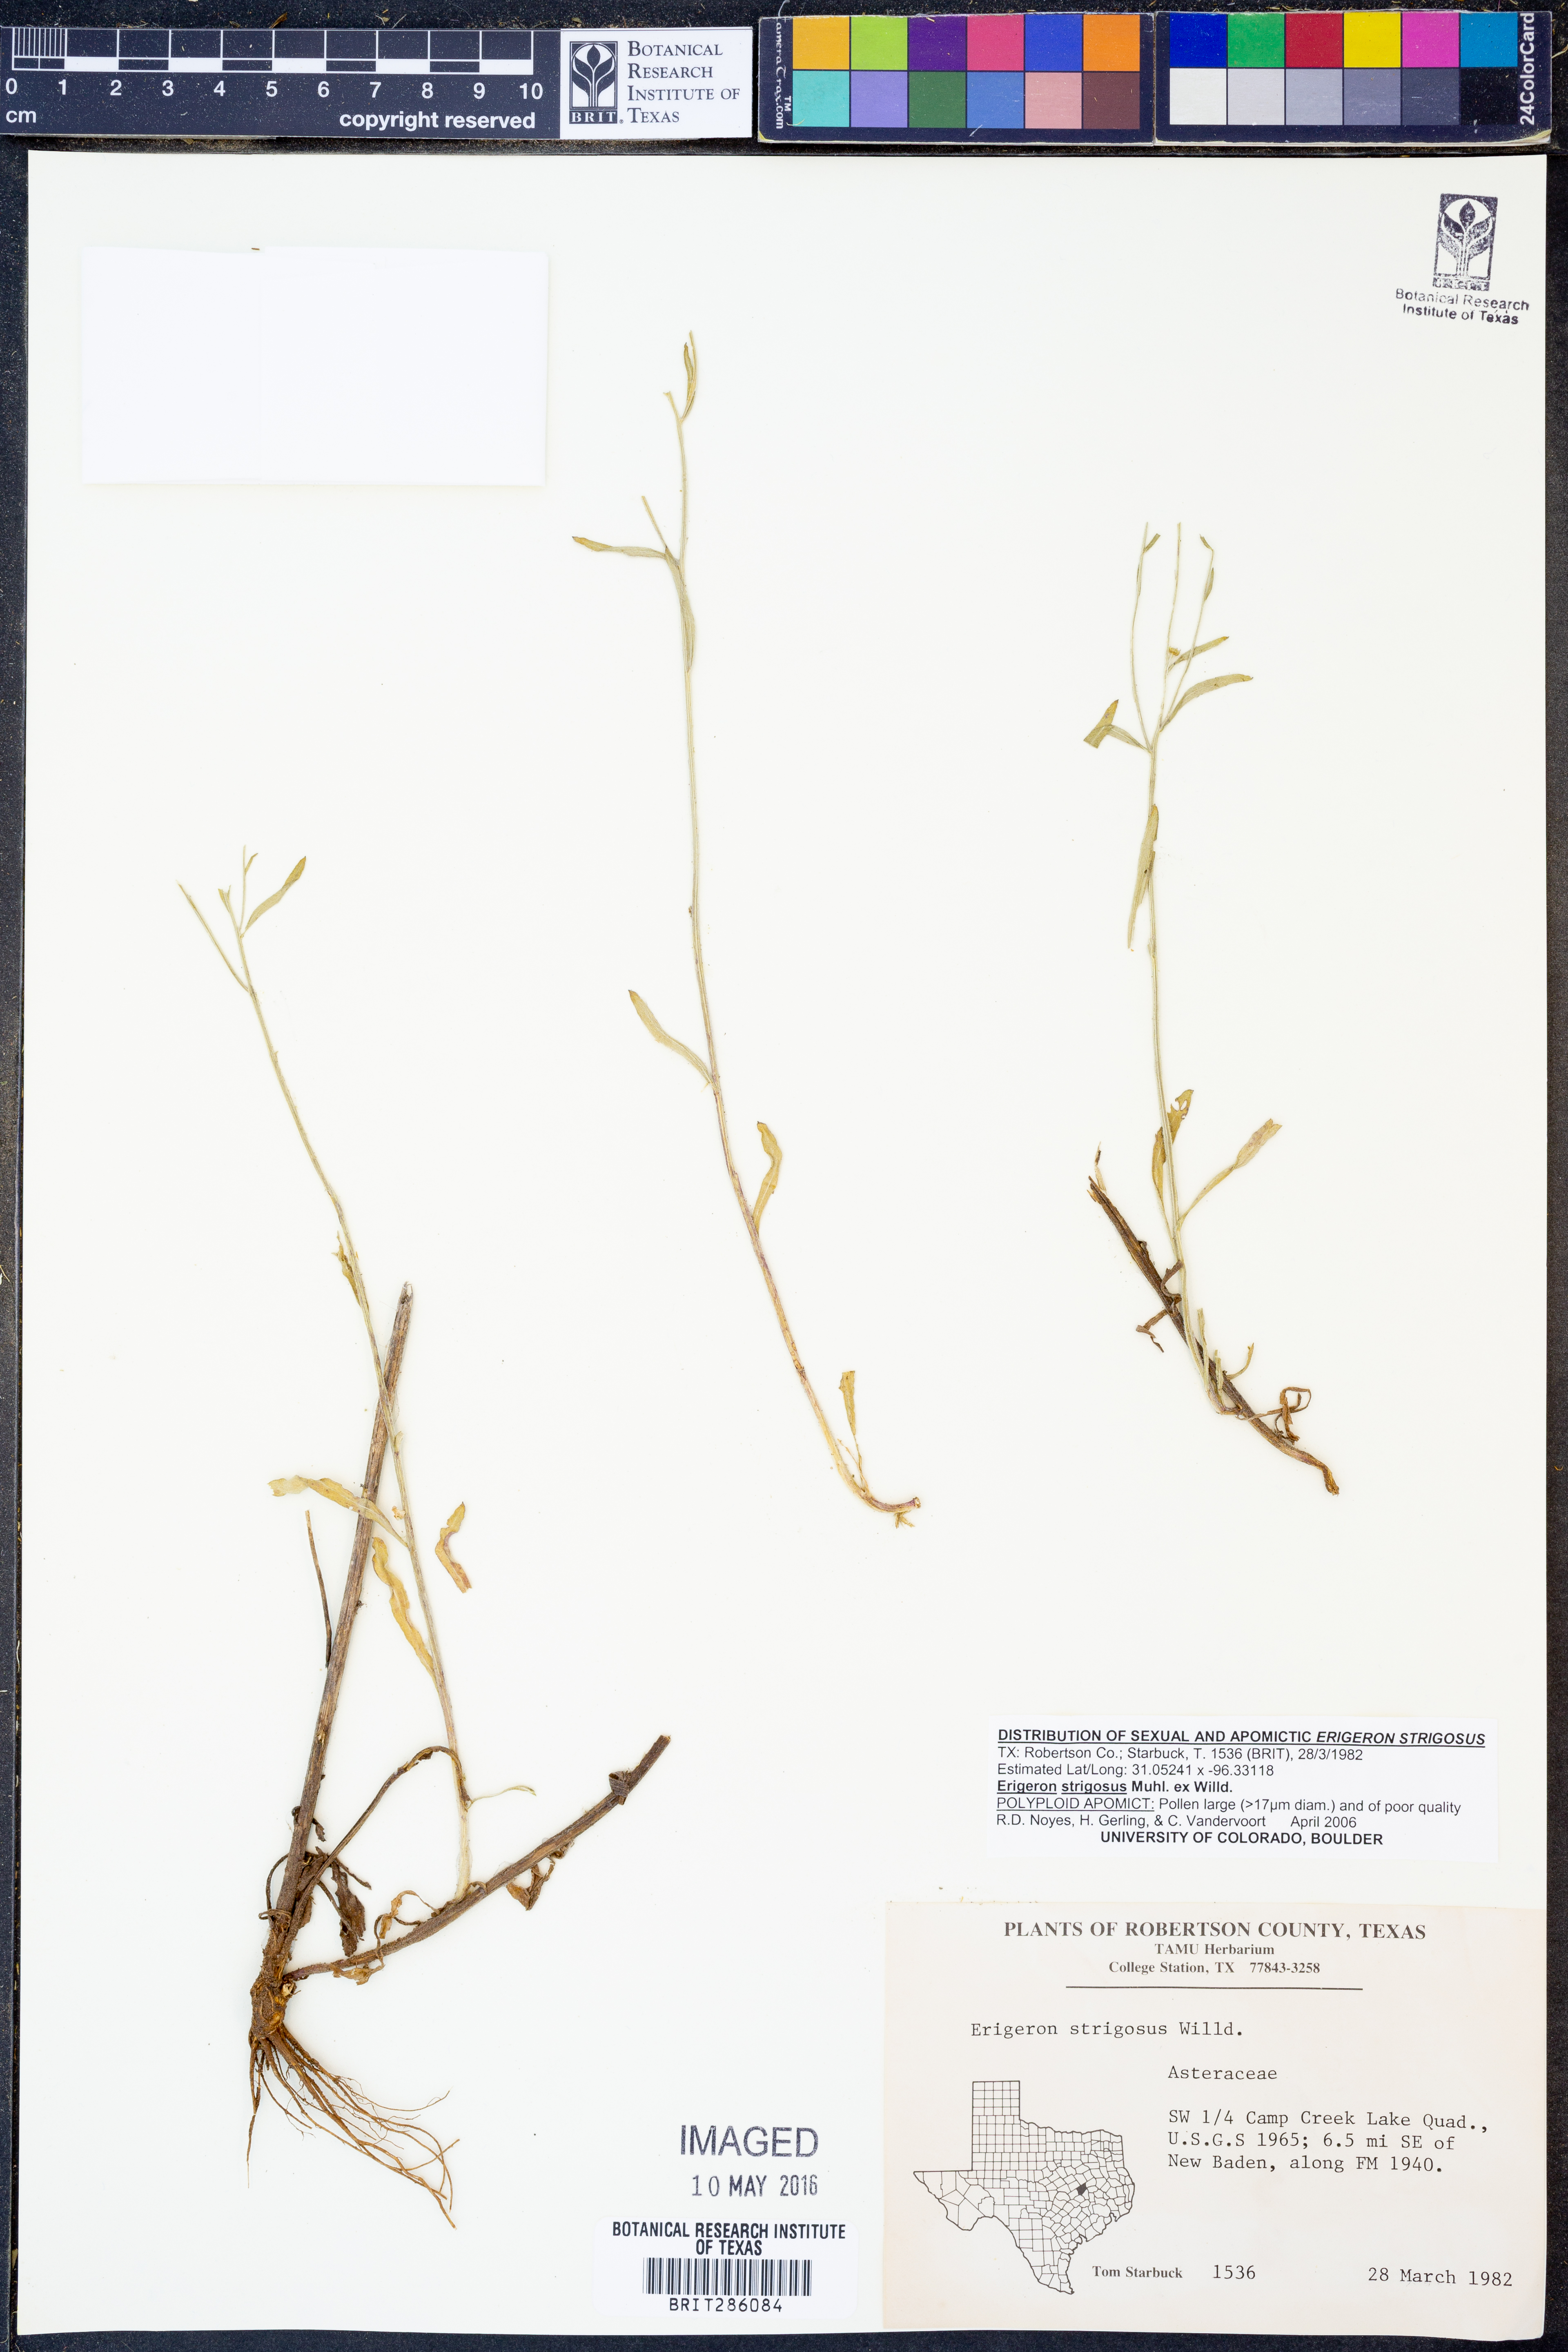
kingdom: Plantae
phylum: Tracheophyta
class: Magnoliopsida
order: Asterales
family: Asteraceae
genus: Erigeron
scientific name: Erigeron strigosus
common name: Common eastern fleabane
